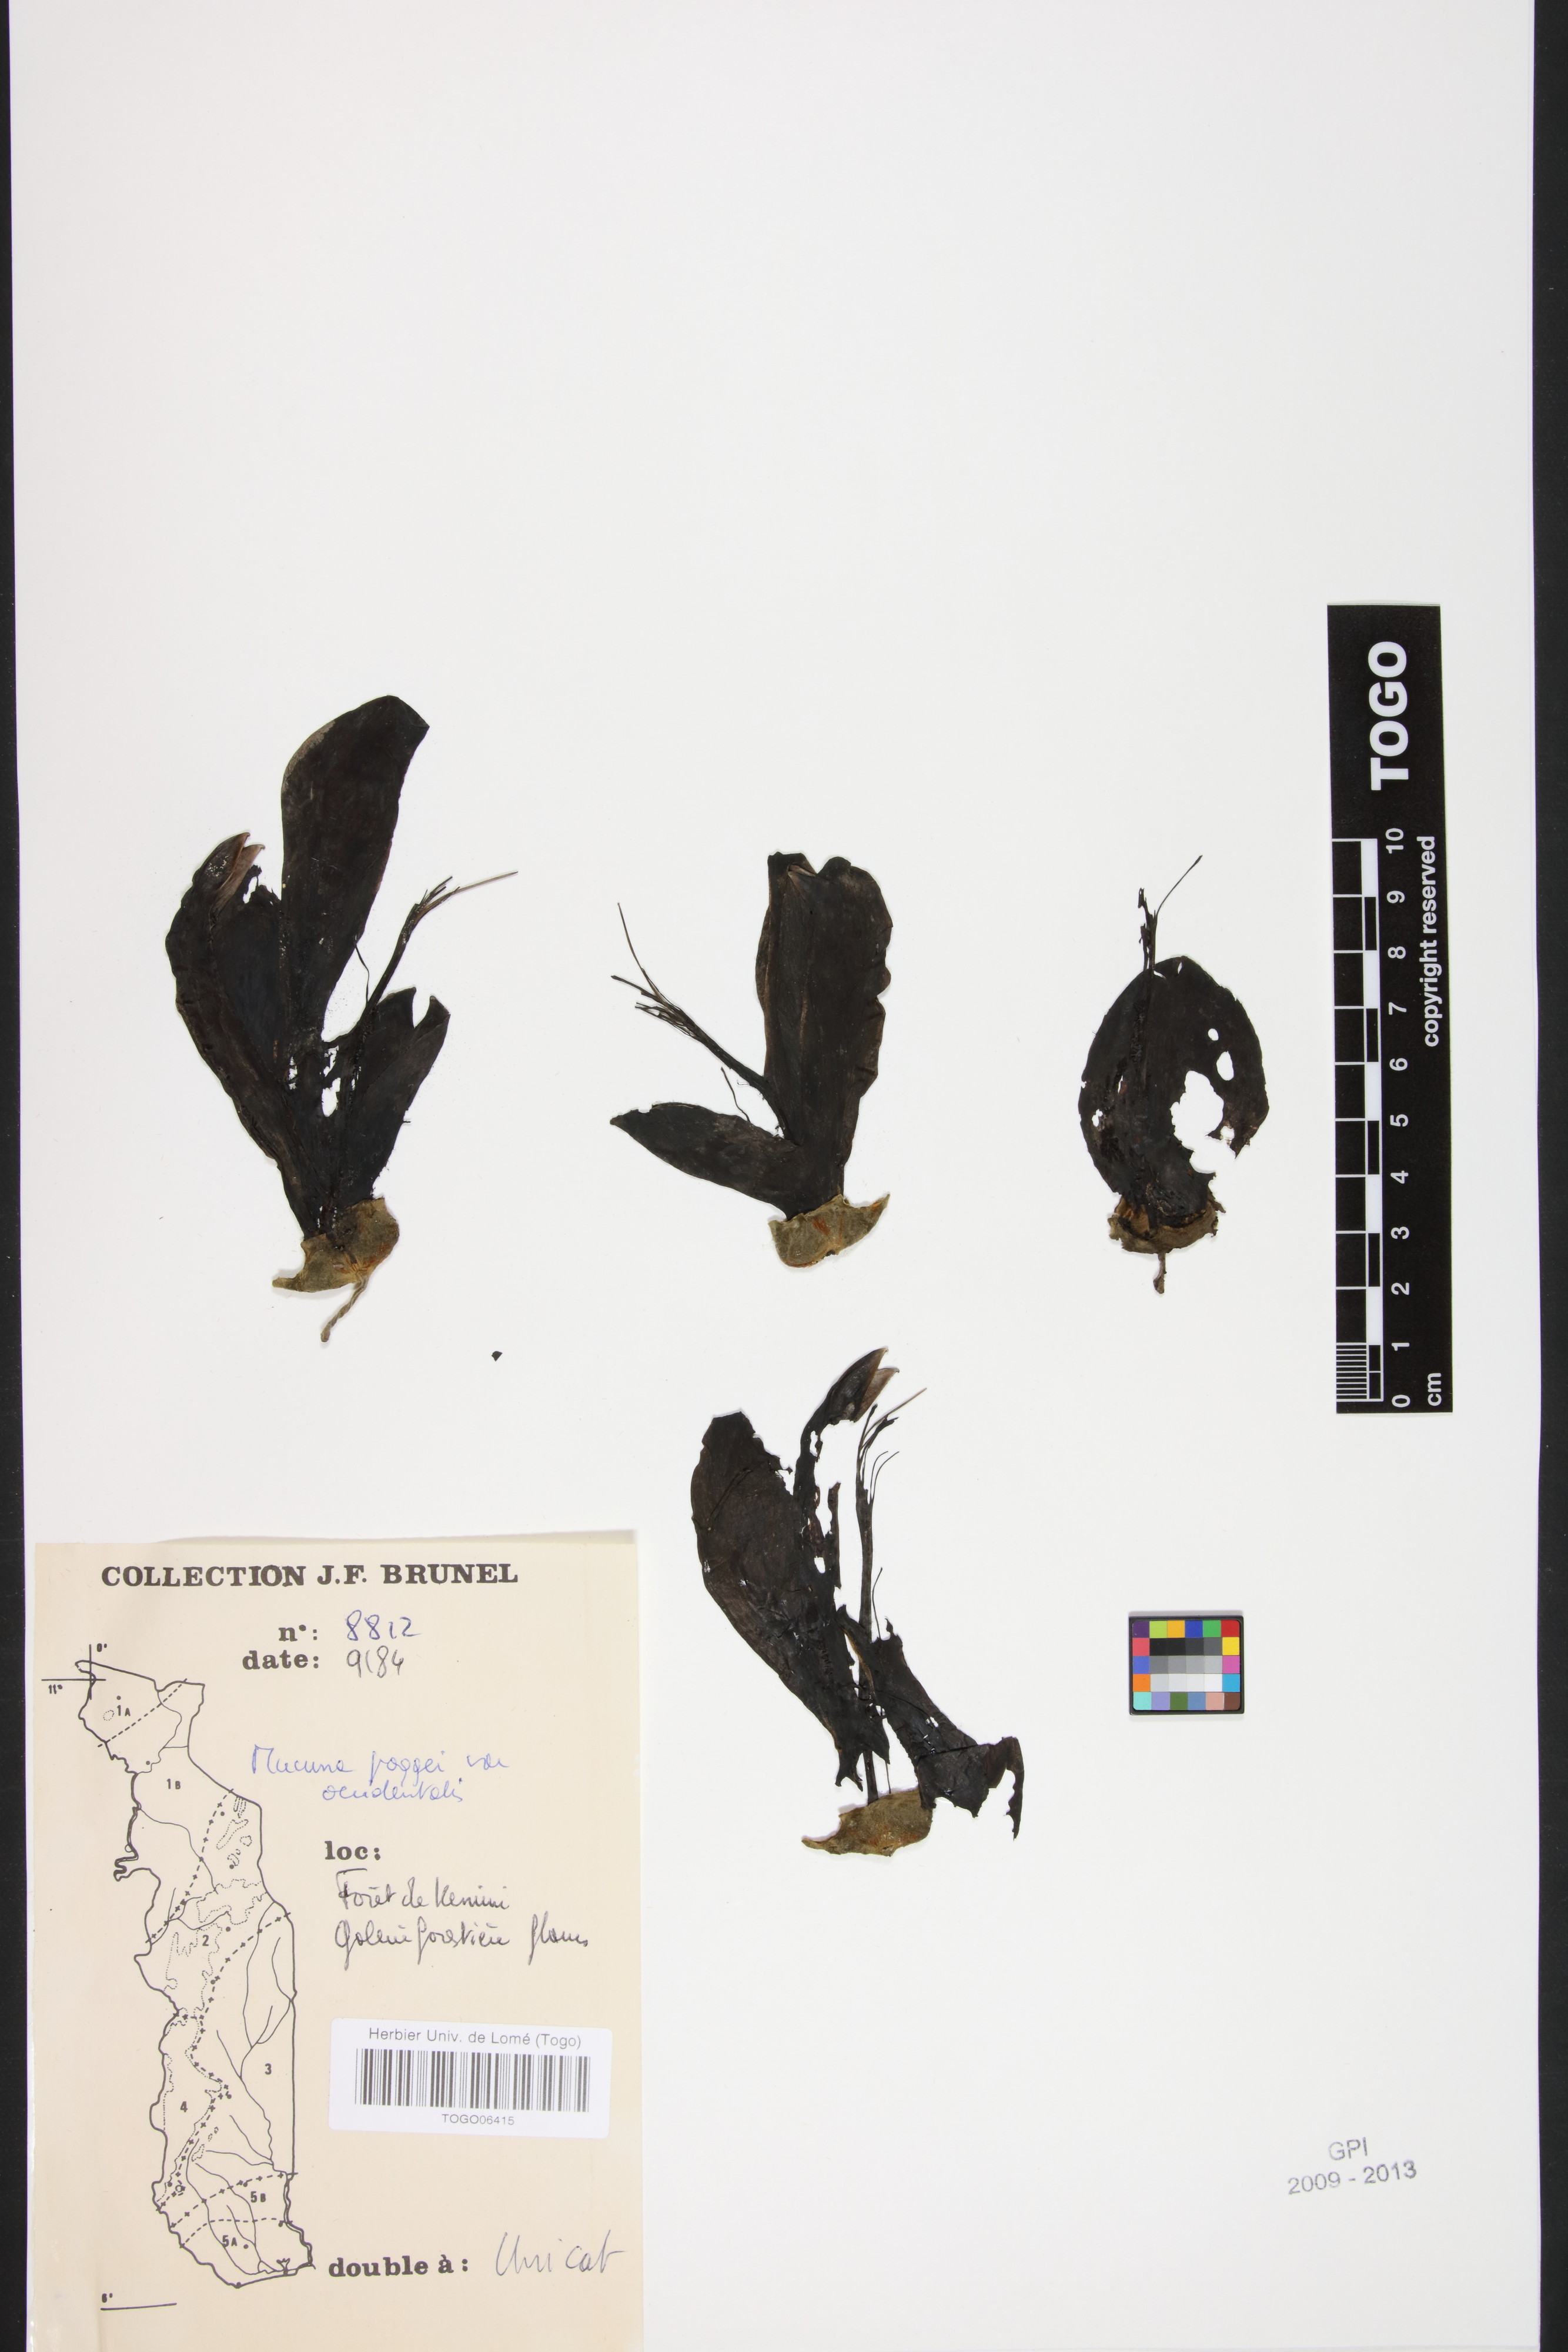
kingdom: Plantae
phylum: Tracheophyta
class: Magnoliopsida
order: Fabales
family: Fabaceae
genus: Mucuna
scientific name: Mucuna occidentalis
